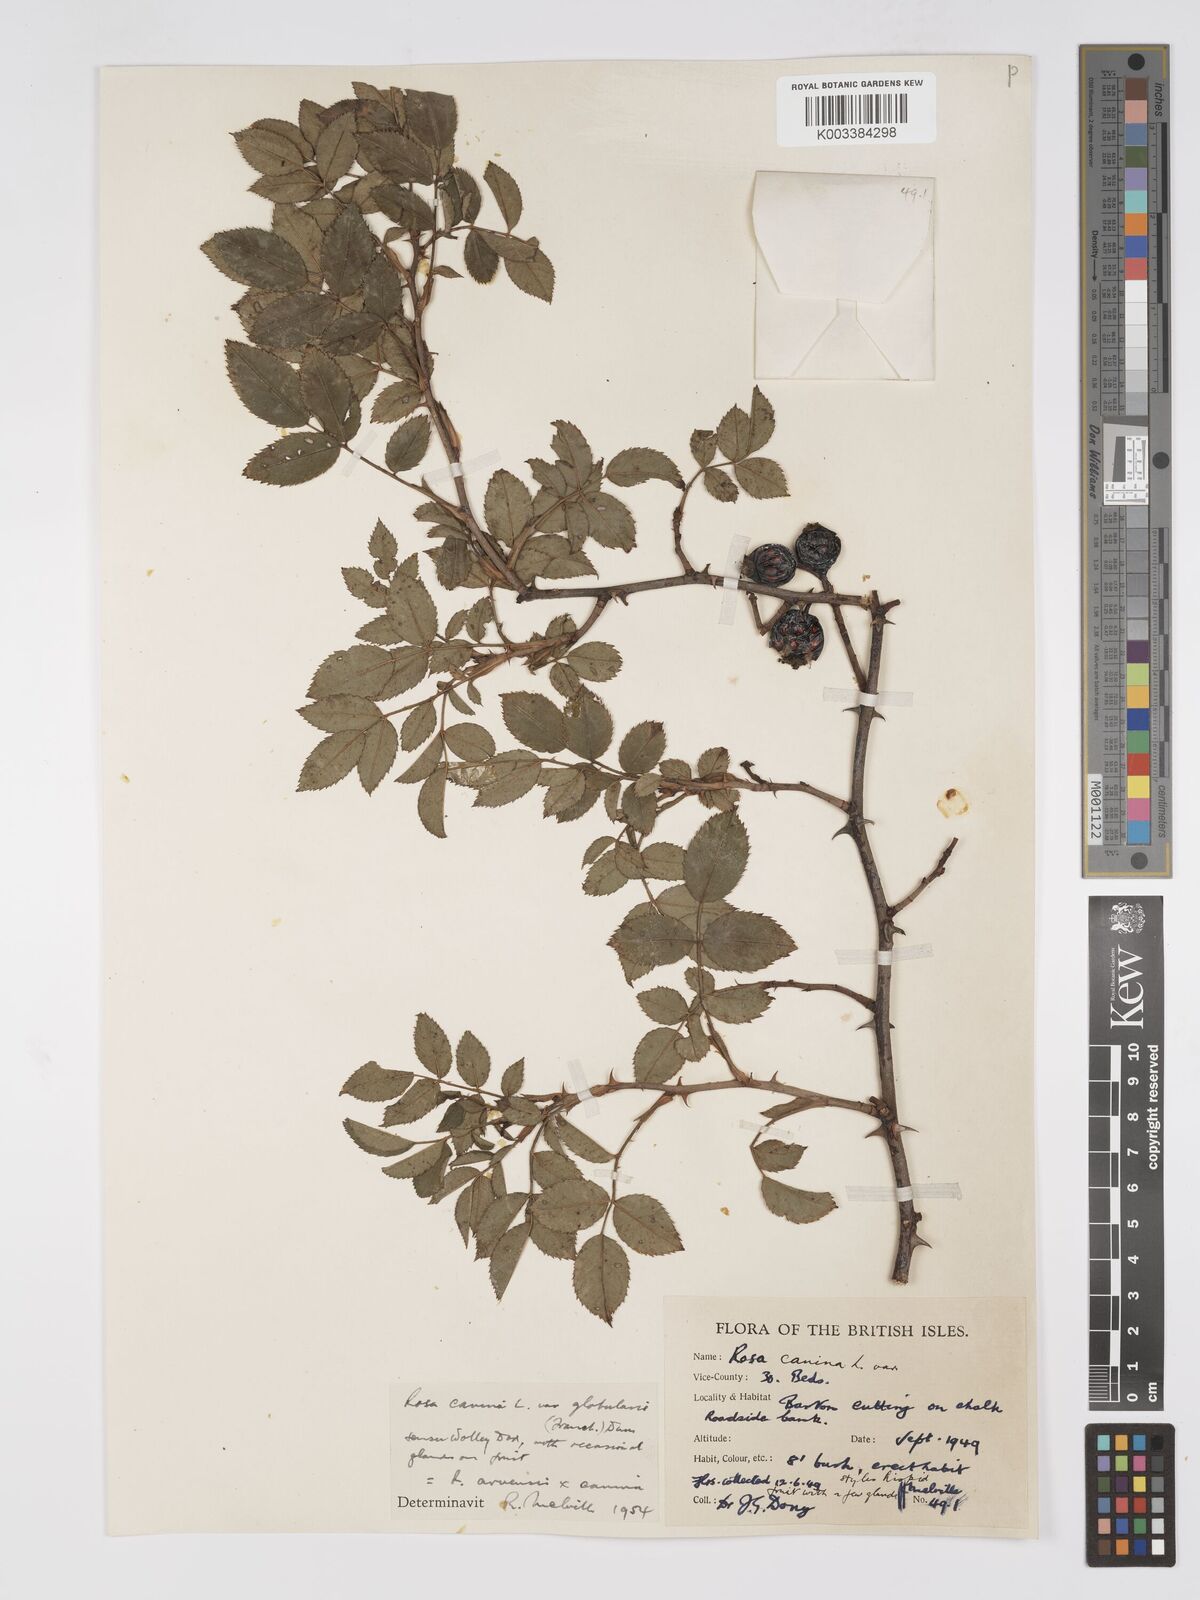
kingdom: Plantae
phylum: Tracheophyta
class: Magnoliopsida
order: Rosales
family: Rosaceae
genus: Rosa
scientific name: Rosa canina
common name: Dog rose
